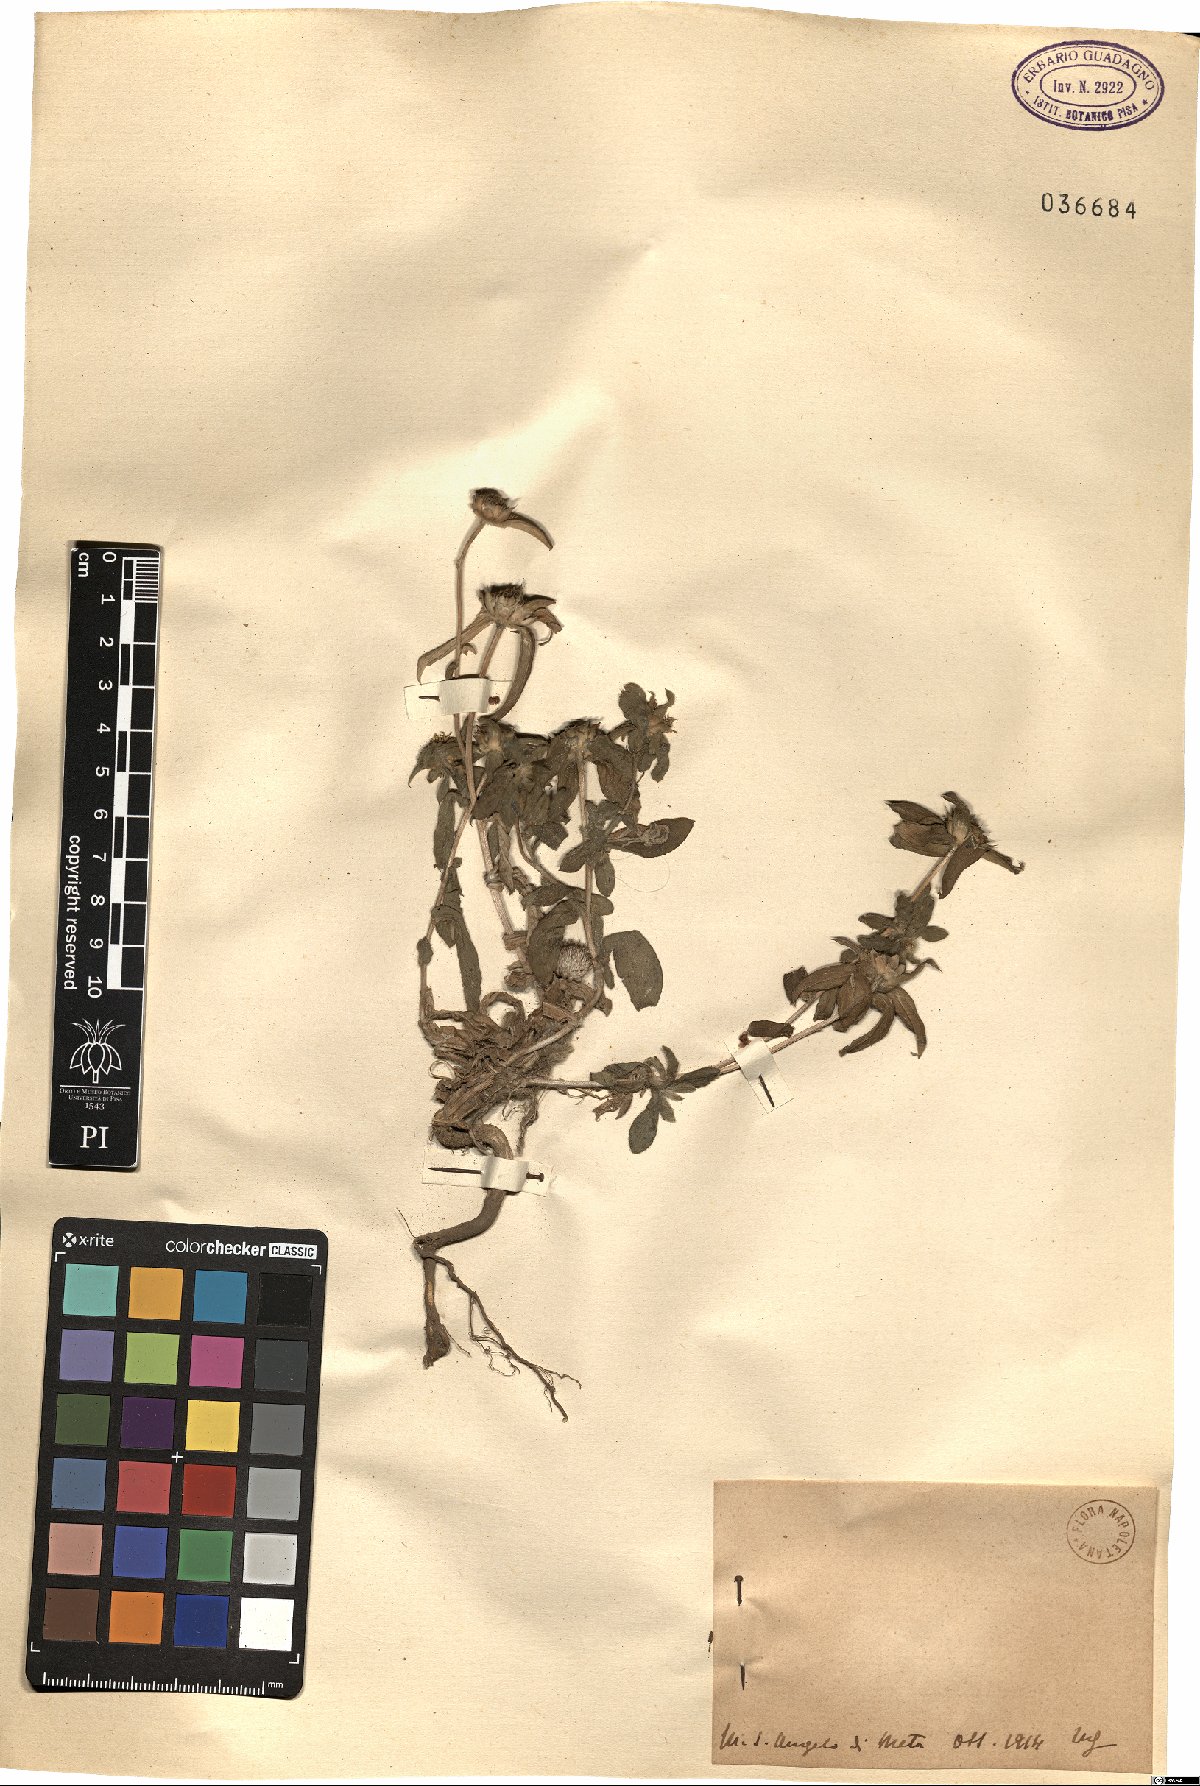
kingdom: Plantae
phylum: Tracheophyta
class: Magnoliopsida
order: Asterales
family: Asteraceae
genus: Asteriscus
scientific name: Asteriscus
